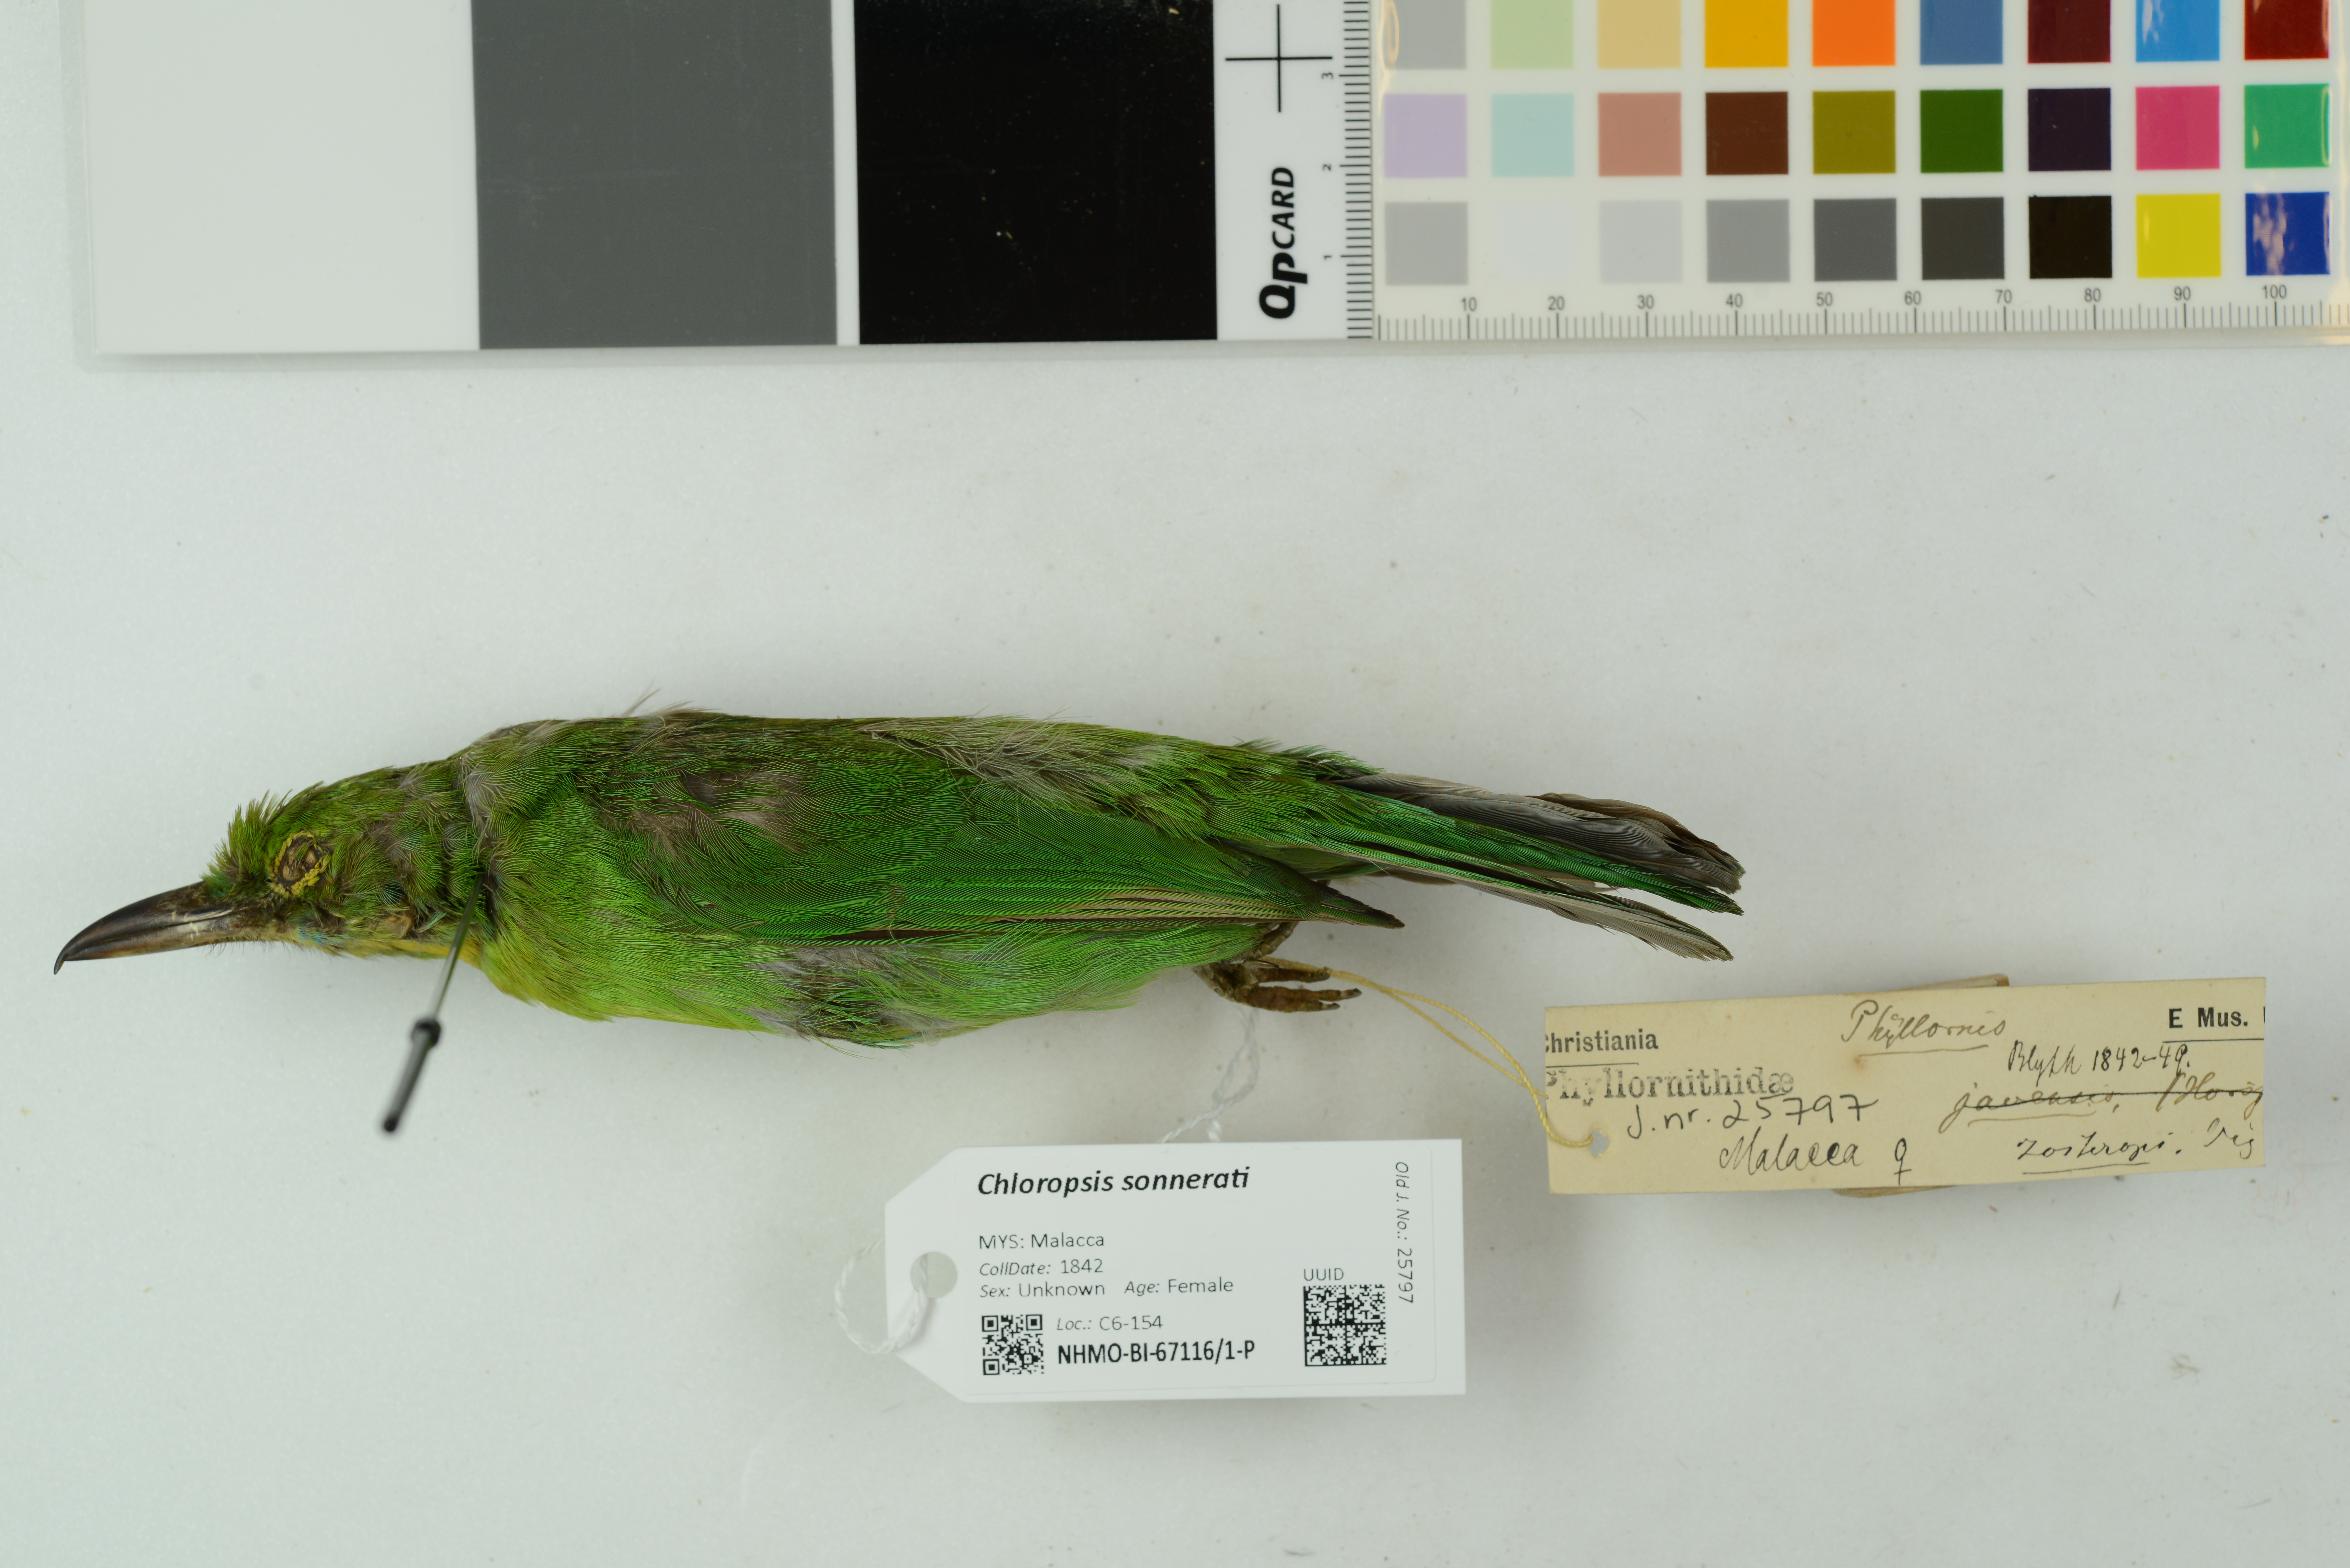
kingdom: Animalia
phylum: Chordata
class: Aves
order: Passeriformes
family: Chloropseidae
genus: Chloropsis
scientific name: Chloropsis sonnerati
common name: Greater green leafbird
